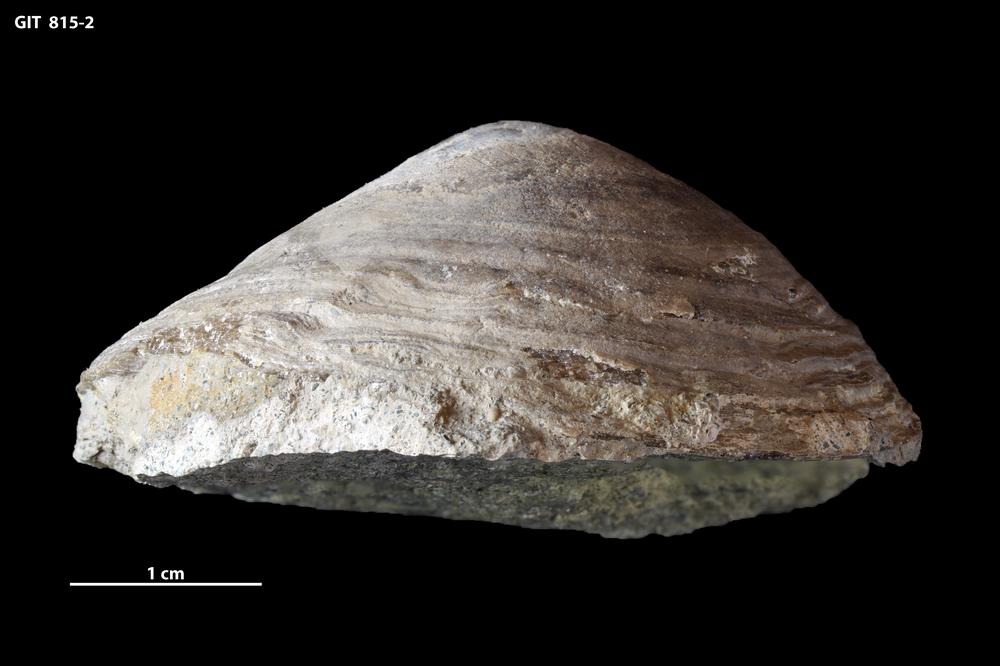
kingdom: Animalia
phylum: Mollusca
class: Monoplacophora
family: Metoptomatidae
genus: Metoptoma
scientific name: Metoptoma
